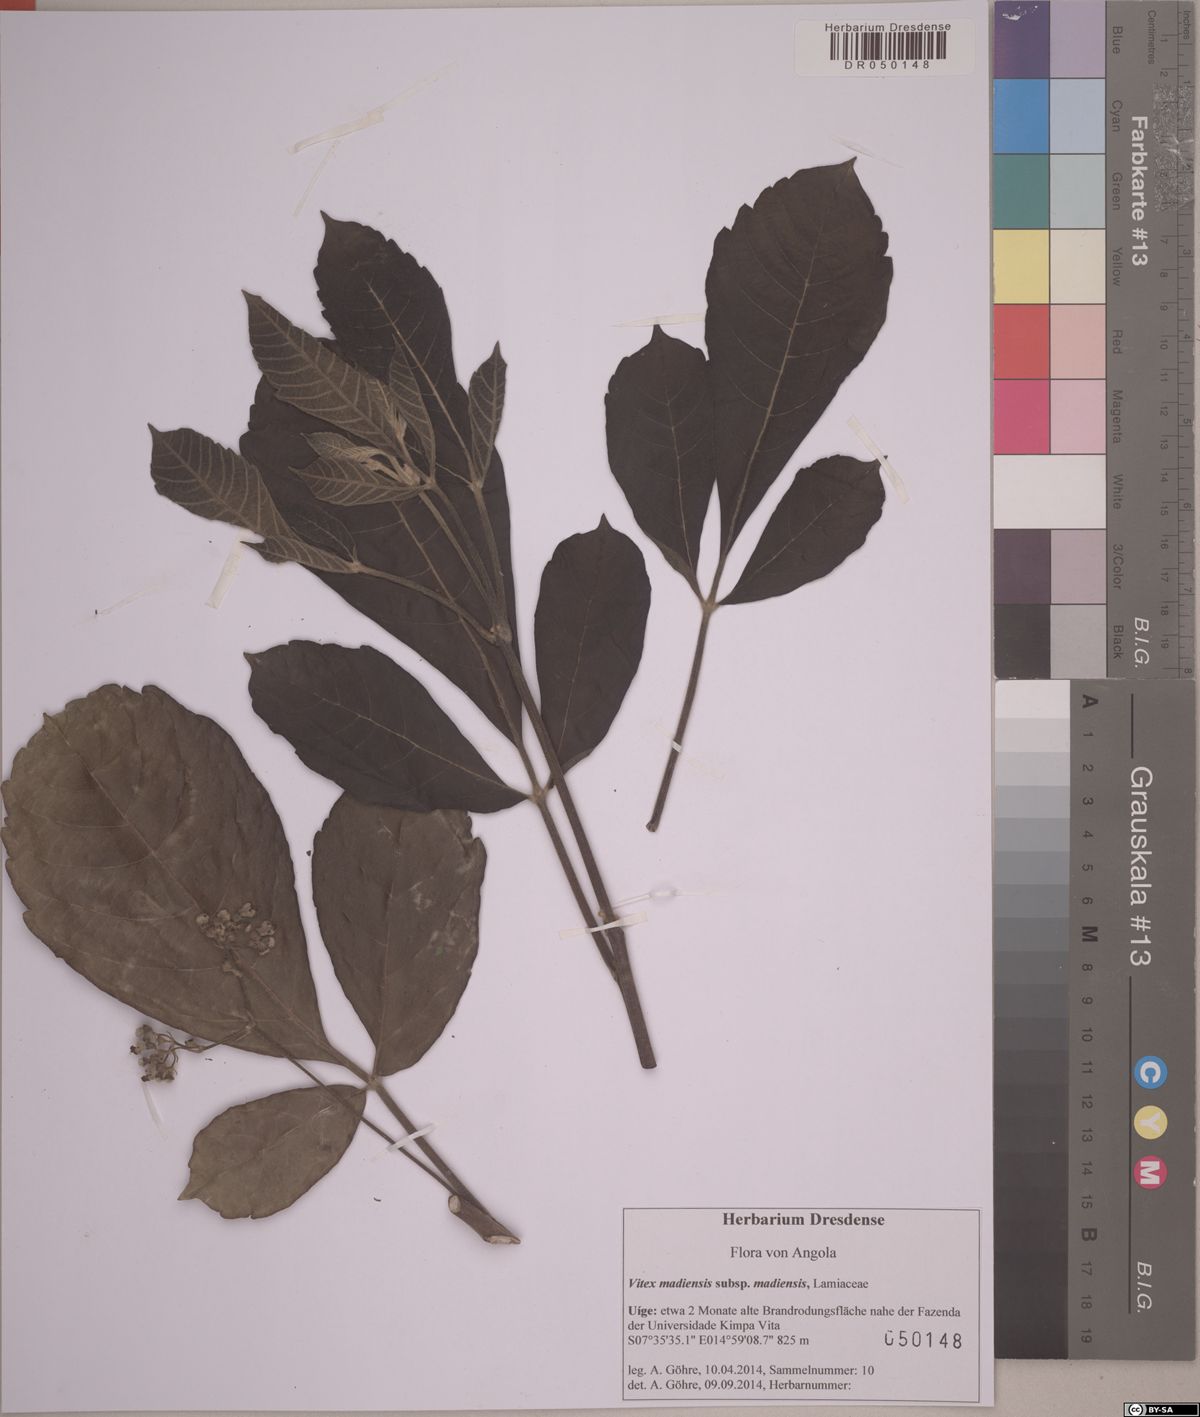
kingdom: Plantae
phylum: Tracheophyta
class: Magnoliopsida
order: Lamiales
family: Lamiaceae
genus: Vitex
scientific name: Vitex madiensis
